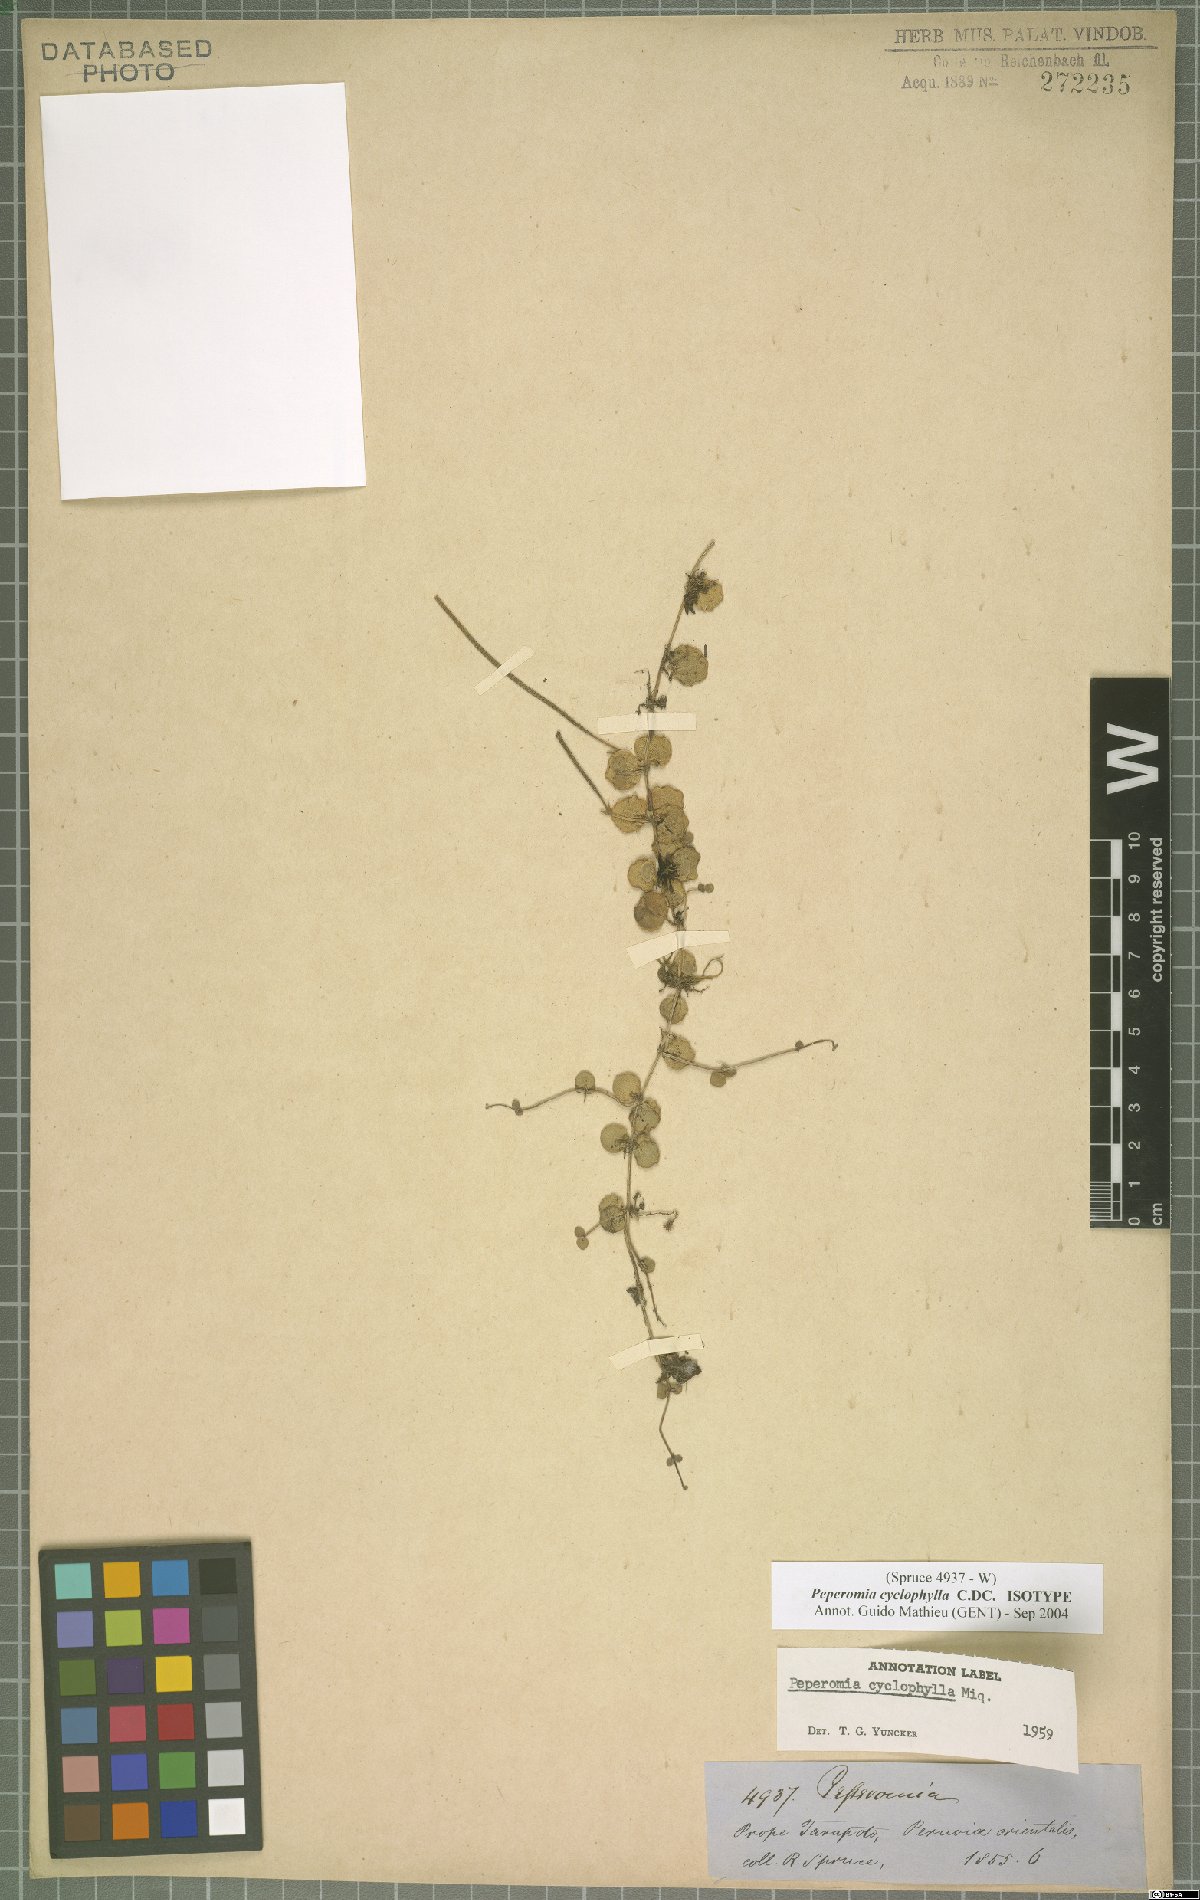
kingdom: Plantae
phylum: Tracheophyta
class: Magnoliopsida
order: Piperales
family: Piperaceae
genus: Peperomia
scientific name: Peperomia cyclophylla
